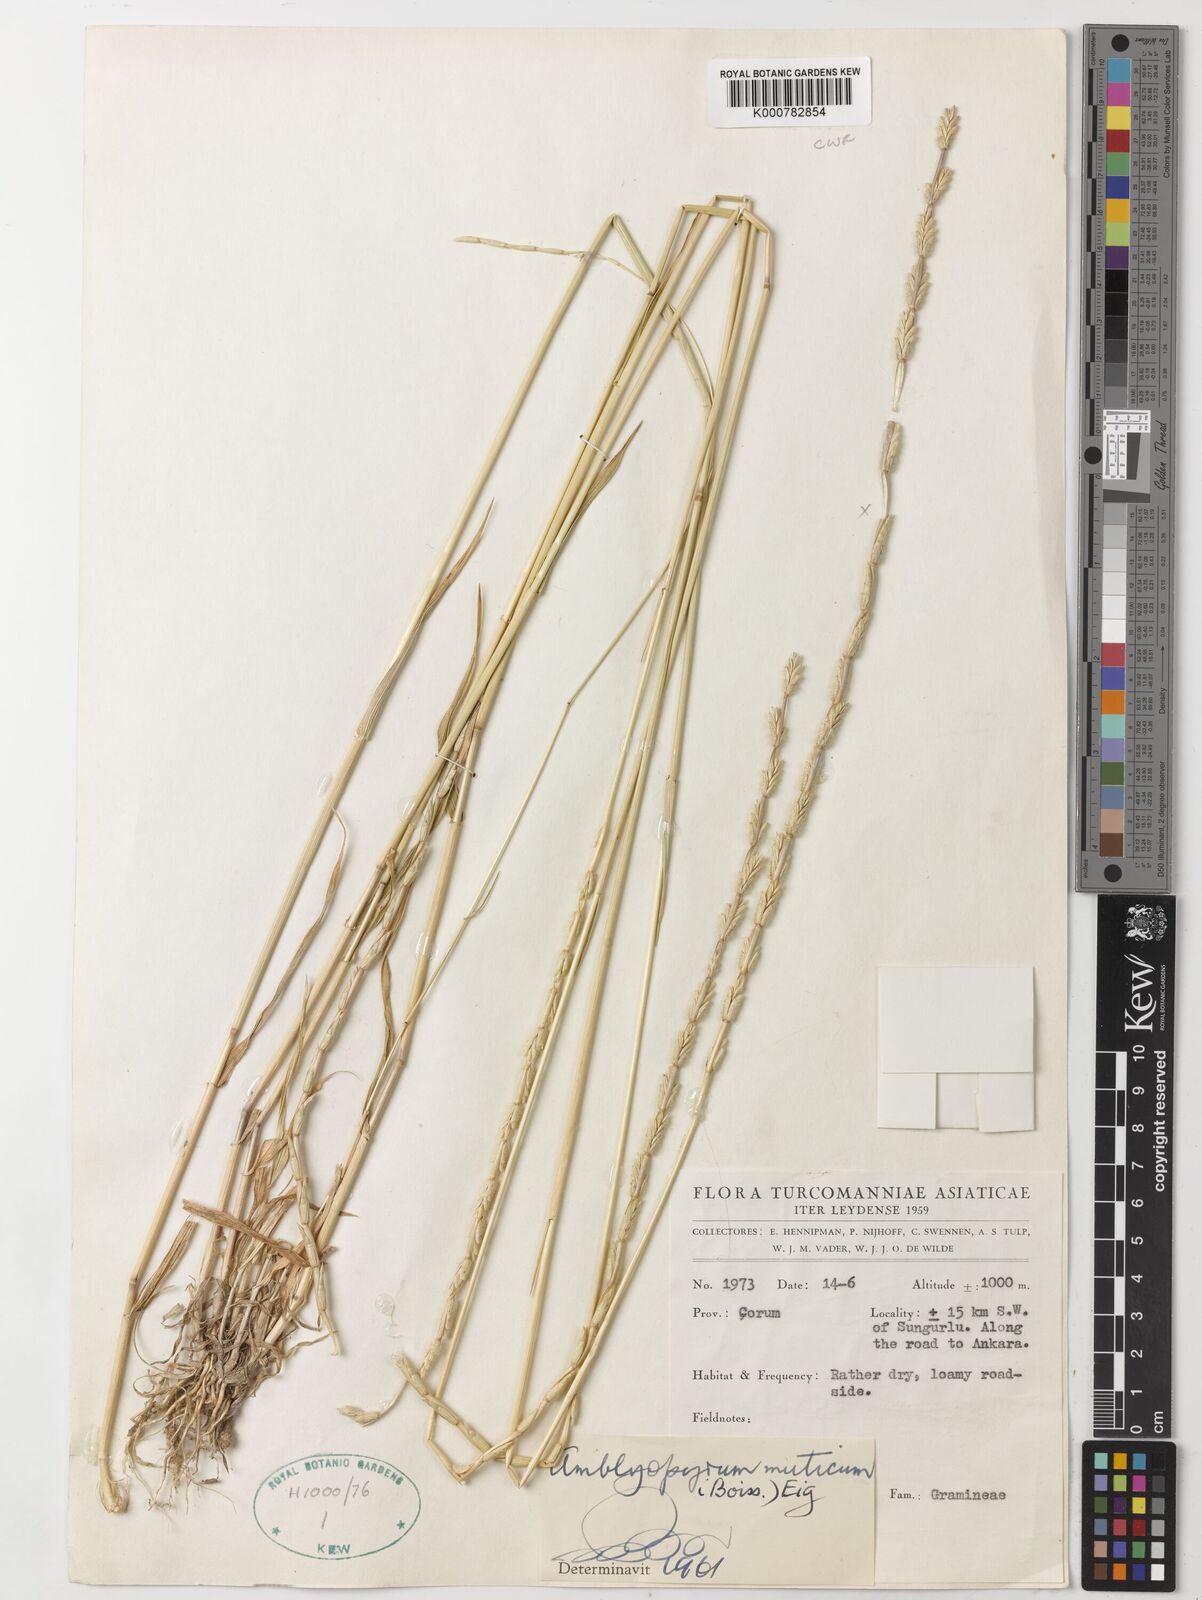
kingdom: Plantae
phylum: Tracheophyta
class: Liliopsida
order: Poales
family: Poaceae
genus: Aegilops
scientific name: Aegilops mutica
